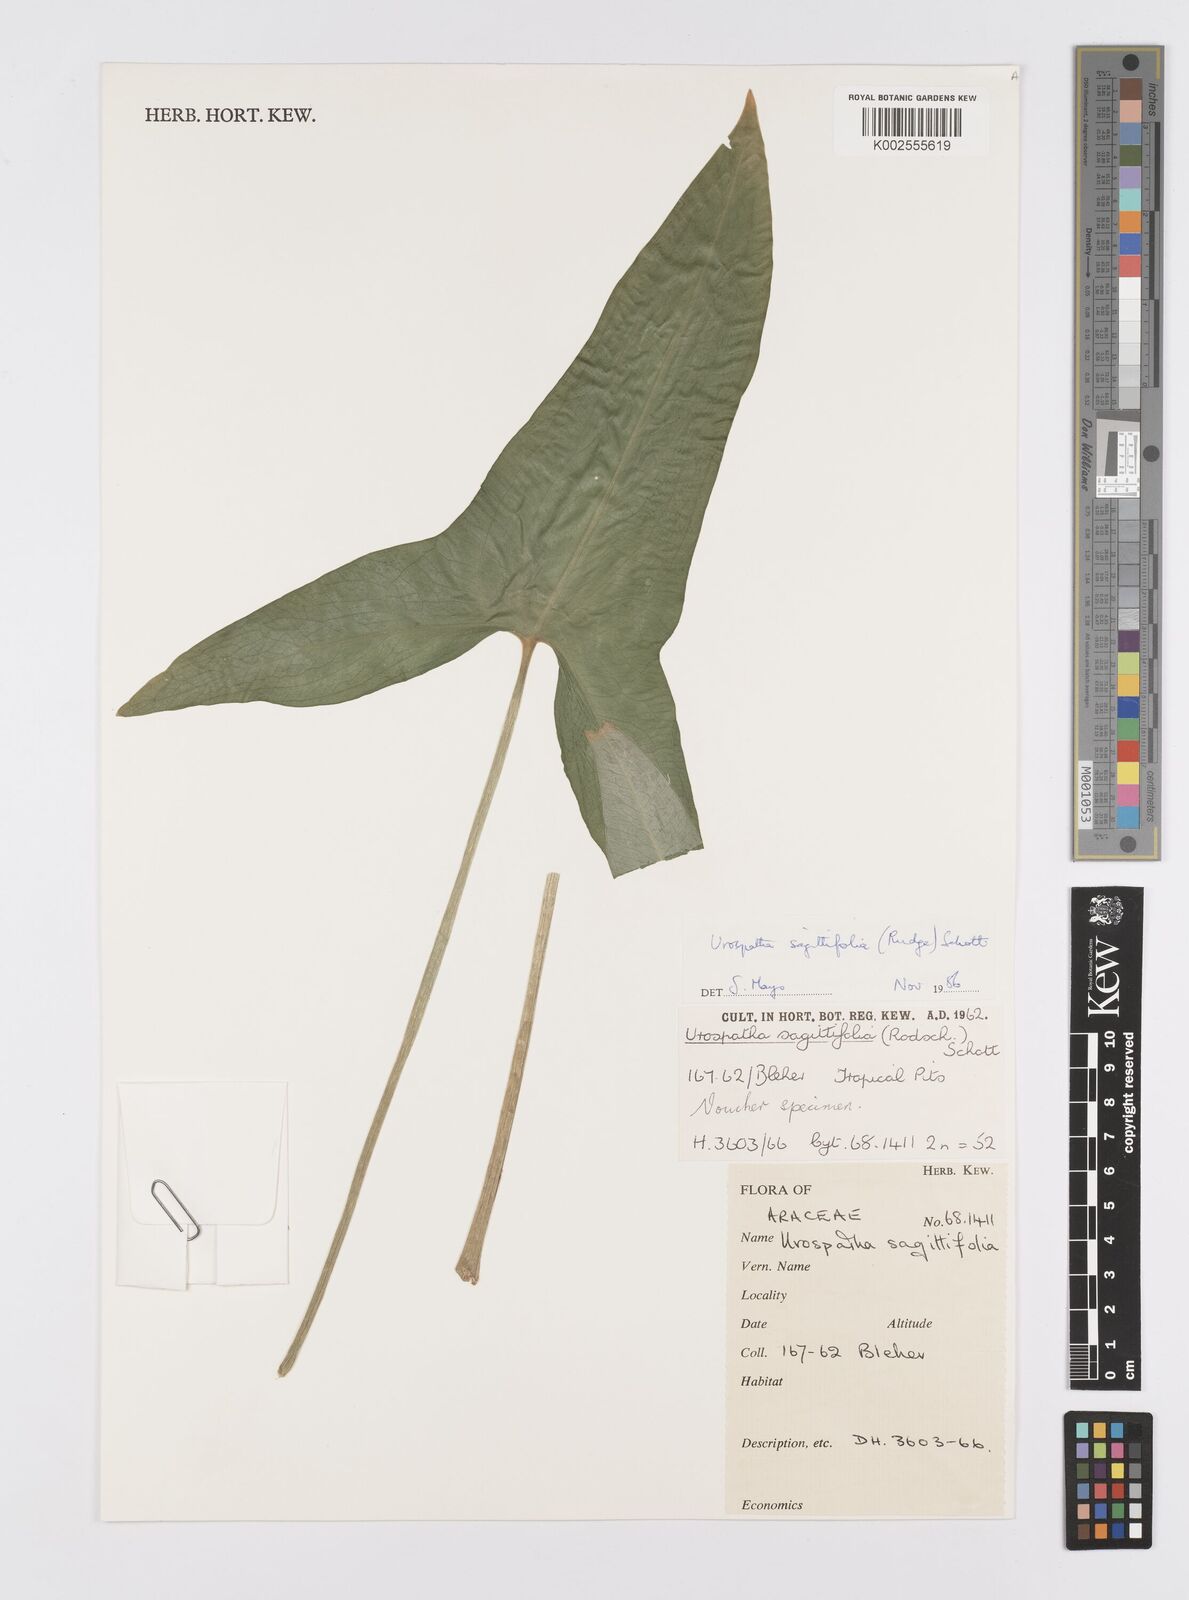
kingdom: Plantae
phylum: Tracheophyta
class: Liliopsida
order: Alismatales
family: Araceae
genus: Urospatha
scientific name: Urospatha sagittifolia
